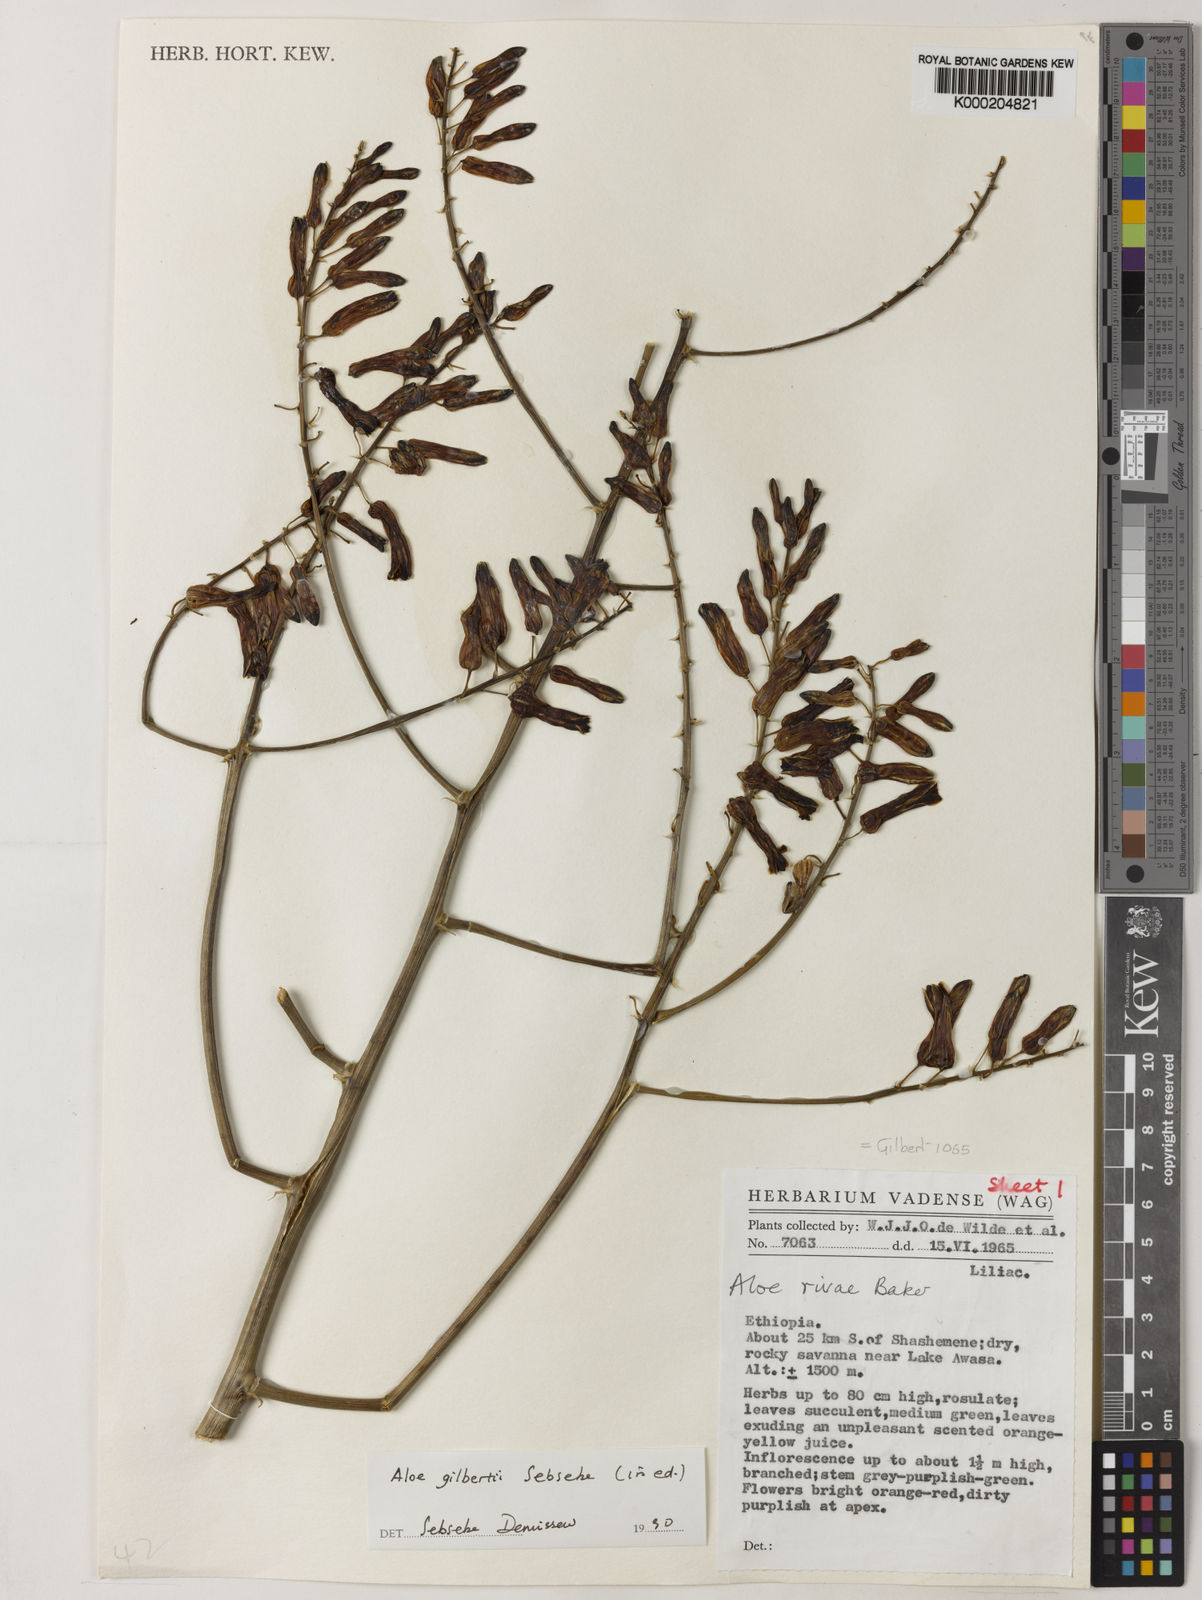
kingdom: Plantae
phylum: Tracheophyta
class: Liliopsida
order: Asparagales
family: Asphodelaceae
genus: Aloe
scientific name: Aloe gilbertii
